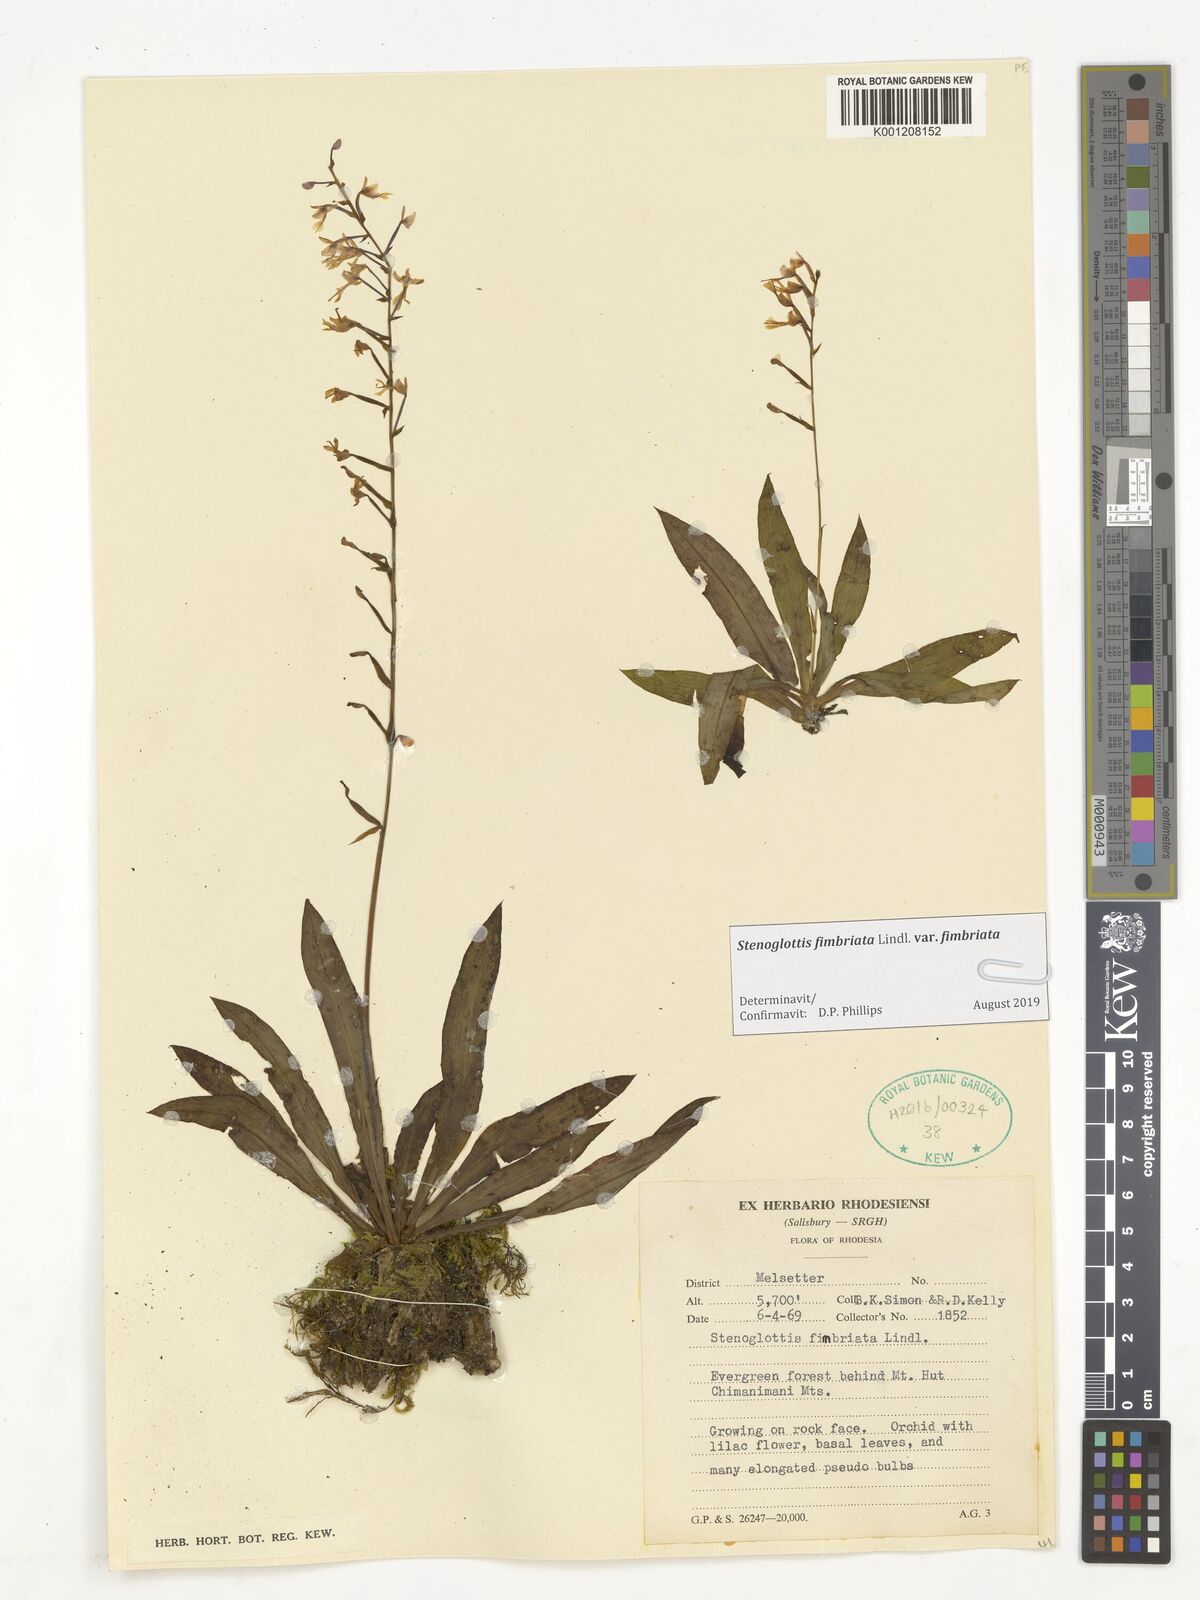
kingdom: Plantae
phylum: Tracheophyta
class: Liliopsida
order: Asparagales
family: Orchidaceae
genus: Stenoglottis
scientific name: Stenoglottis fimbriata
